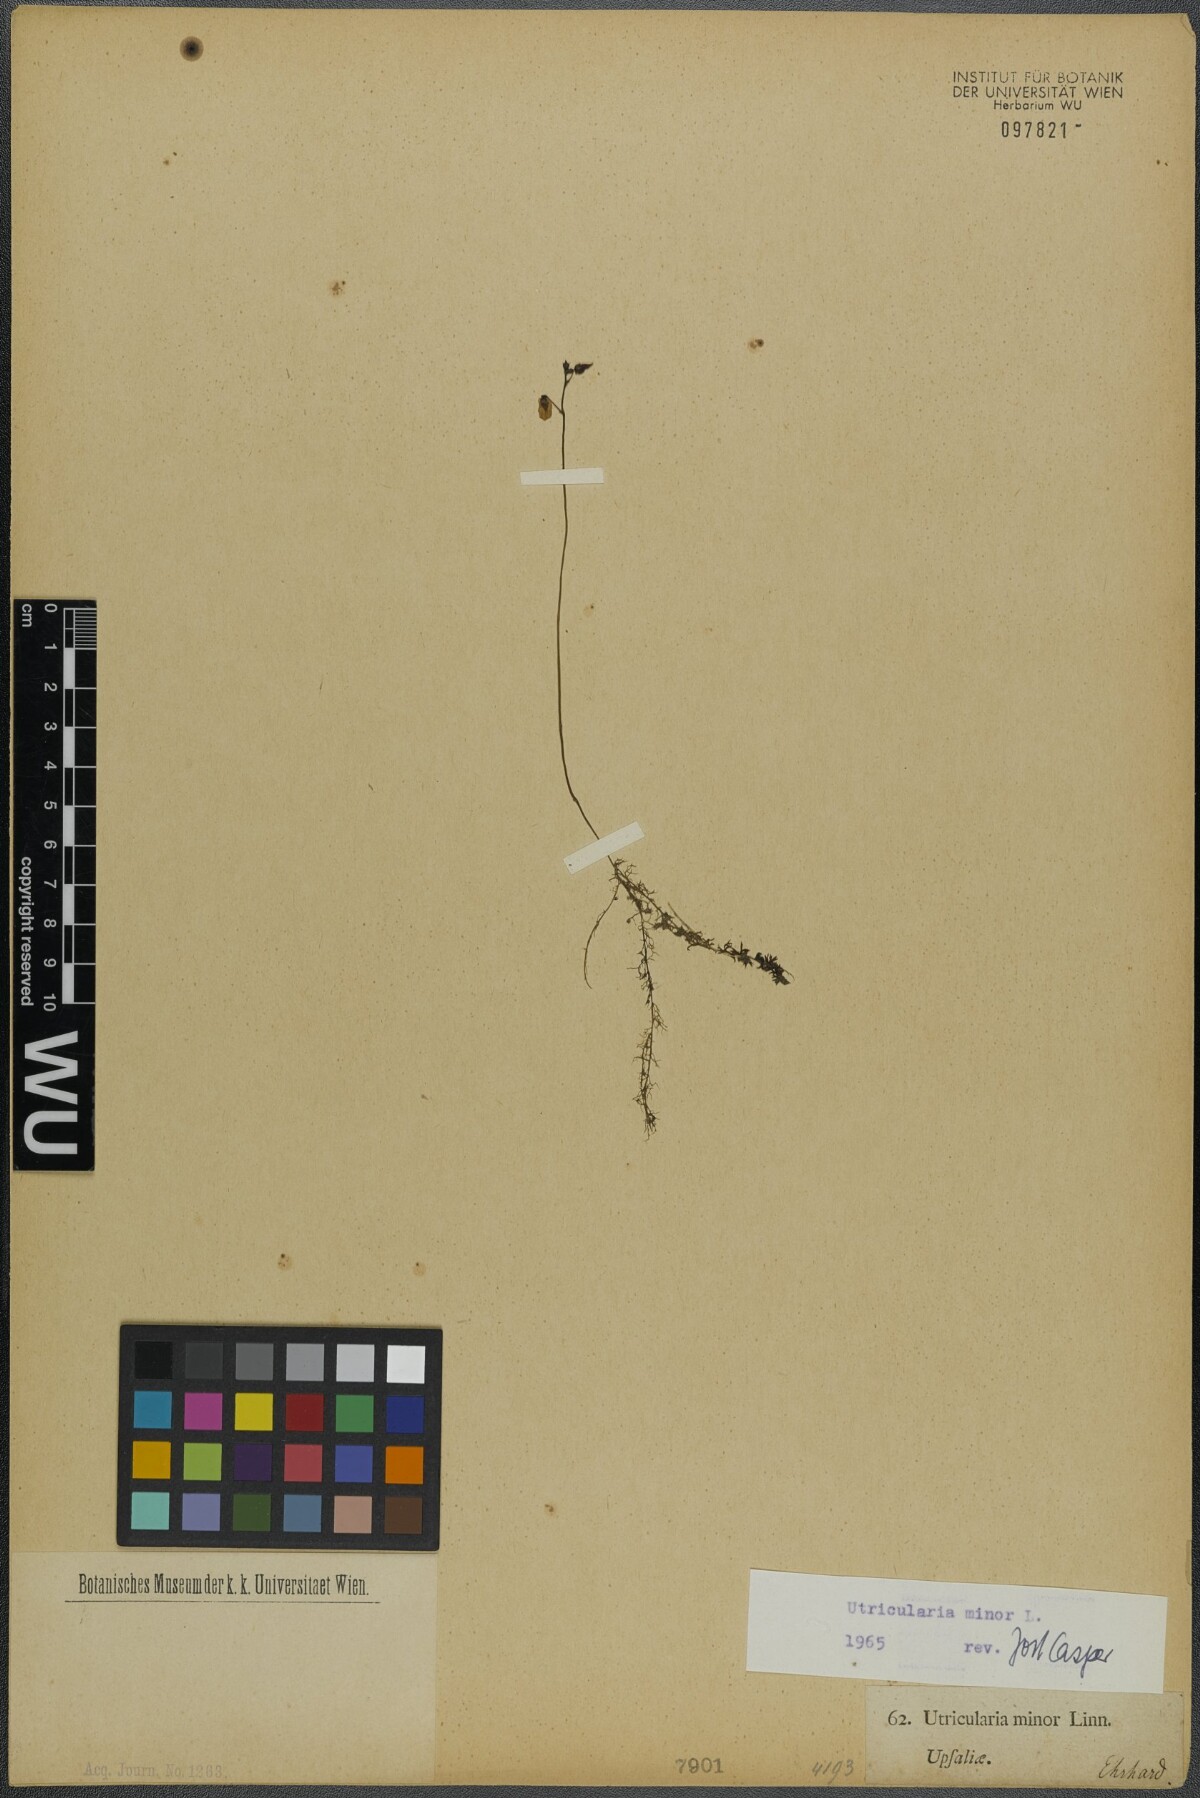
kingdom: Plantae
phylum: Tracheophyta
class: Magnoliopsida
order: Lamiales
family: Lentibulariaceae
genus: Utricularia
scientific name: Utricularia minor
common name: Lesser bladderwort
